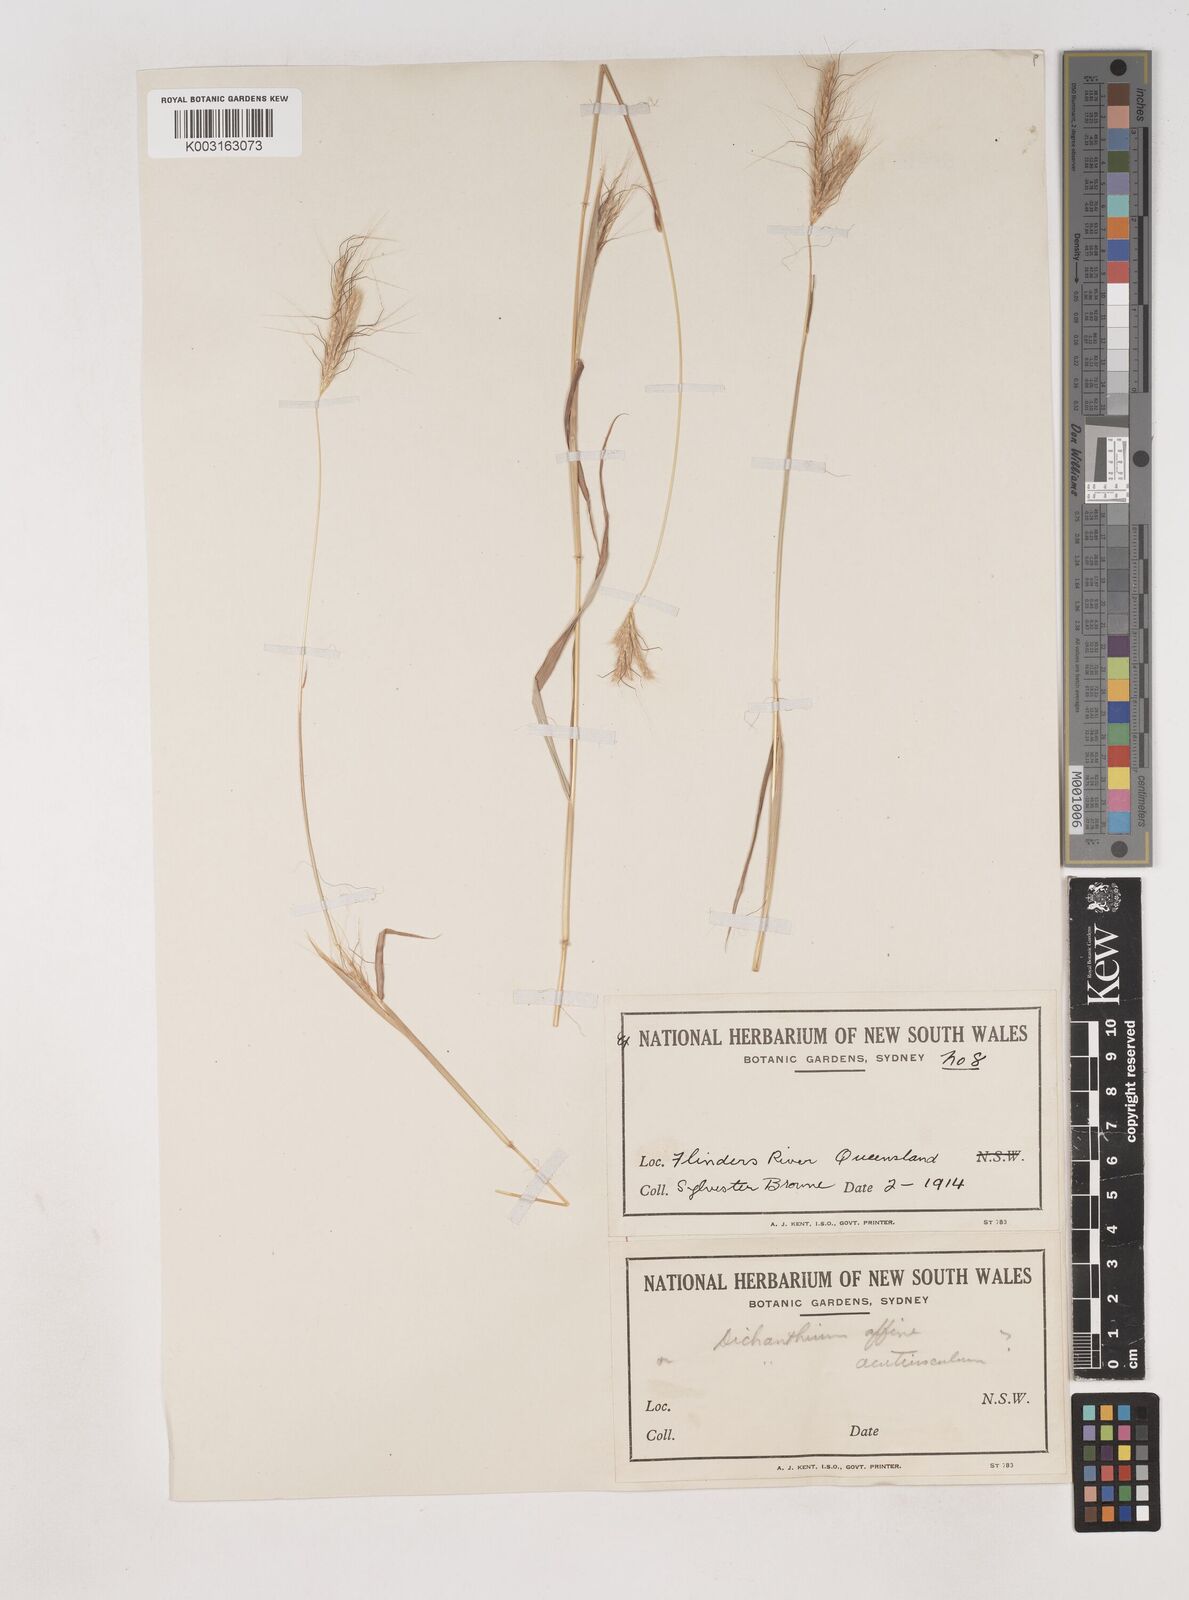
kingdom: Plantae
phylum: Tracheophyta
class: Liliopsida
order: Poales
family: Poaceae
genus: Dichanthium
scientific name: Dichanthium sericeum
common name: Silky bluestem
